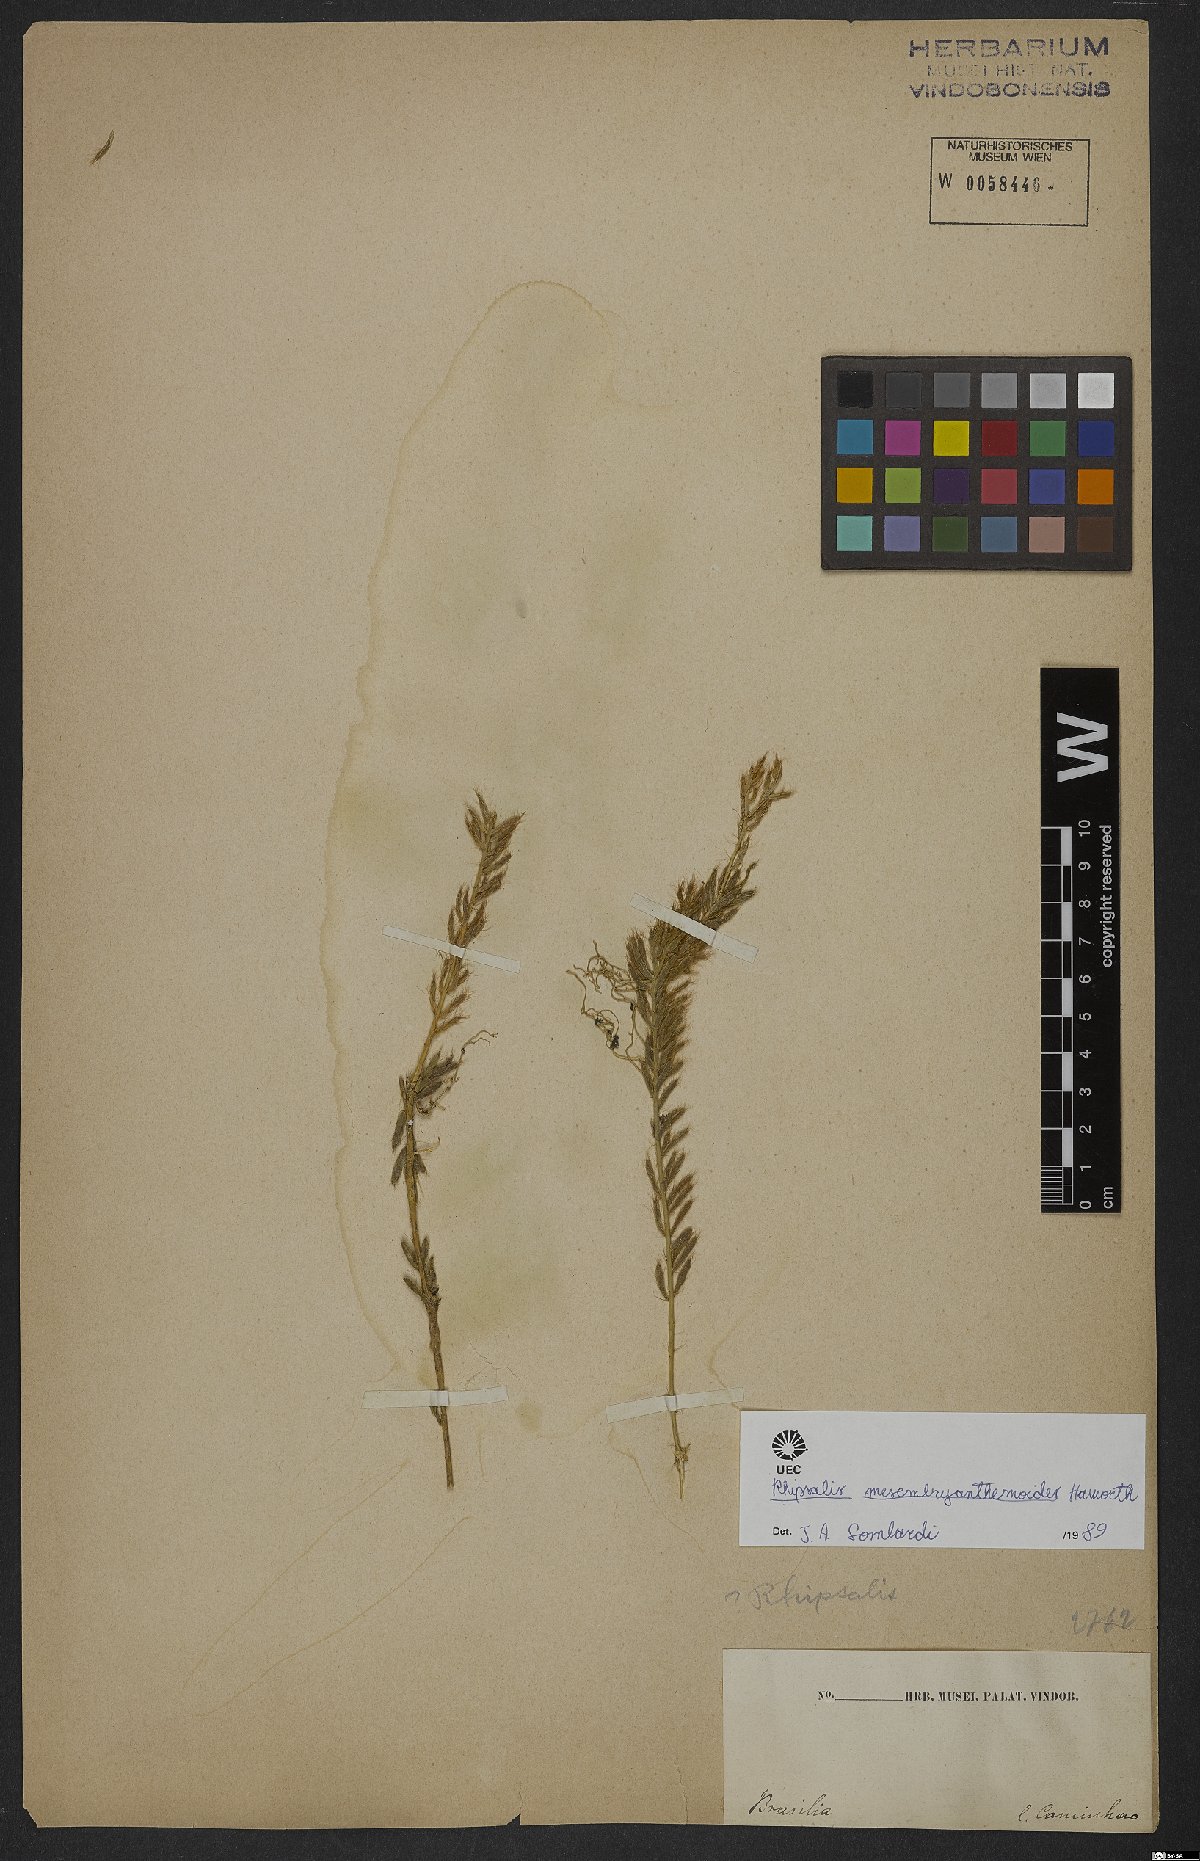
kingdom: Plantae
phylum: Tracheophyta
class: Magnoliopsida
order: Caryophyllales
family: Cactaceae
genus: Rhipsalis
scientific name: Rhipsalis mesembryanthoides
